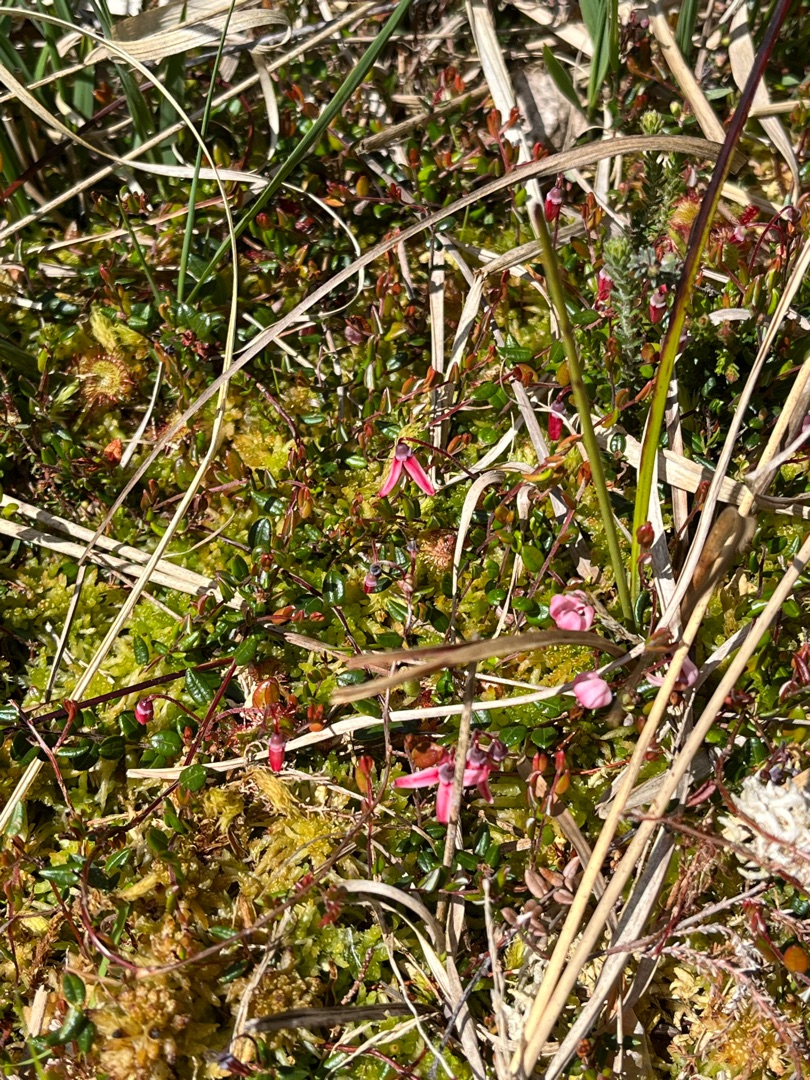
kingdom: Plantae
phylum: Tracheophyta
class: Magnoliopsida
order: Ericales
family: Ericaceae
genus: Vaccinium
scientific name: Vaccinium oxycoccos
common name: Tranebær
